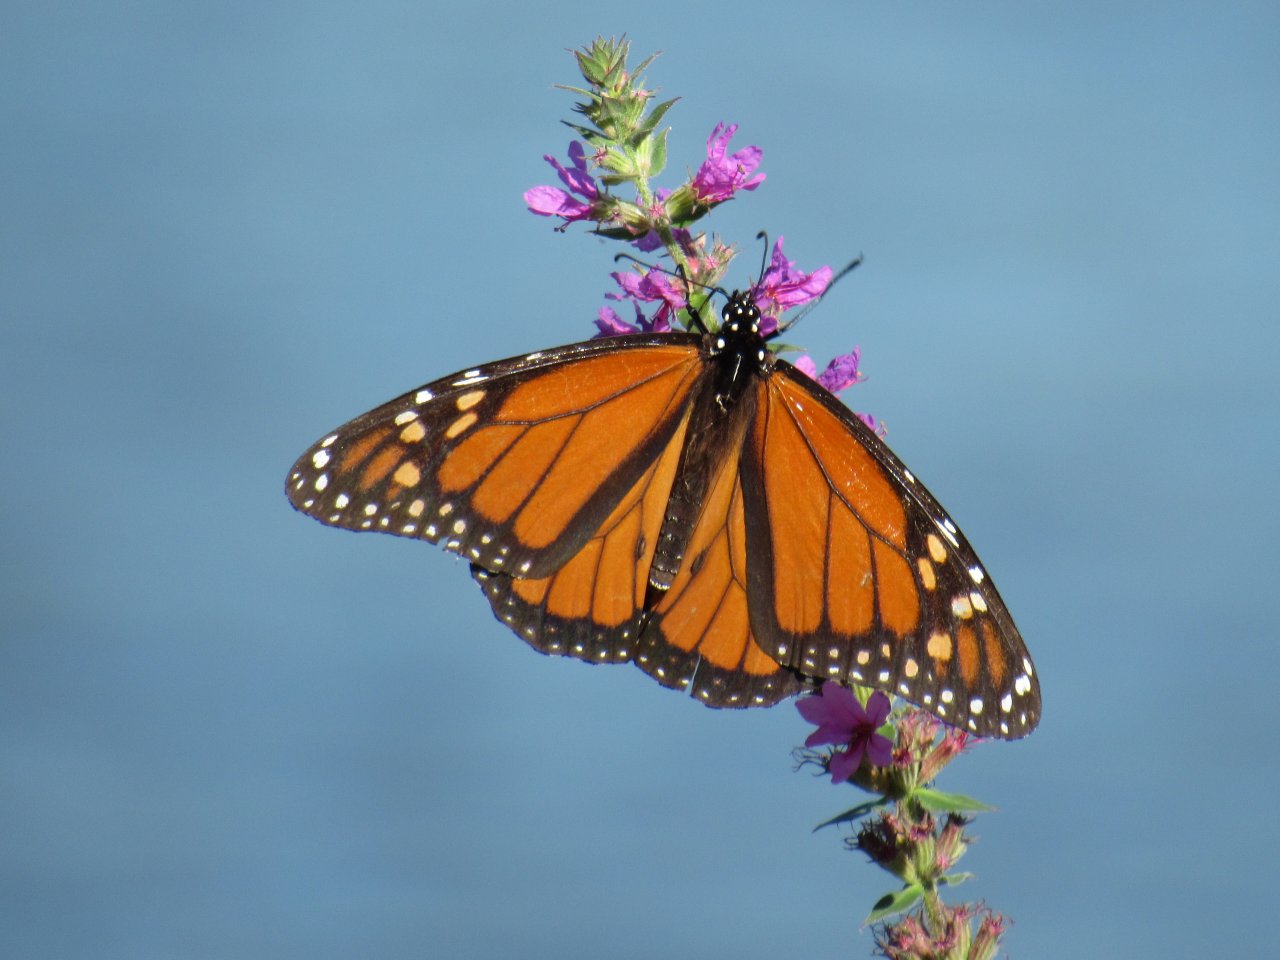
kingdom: Animalia
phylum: Arthropoda
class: Insecta
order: Lepidoptera
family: Nymphalidae
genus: Danaus
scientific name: Danaus plexippus
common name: Monarch
